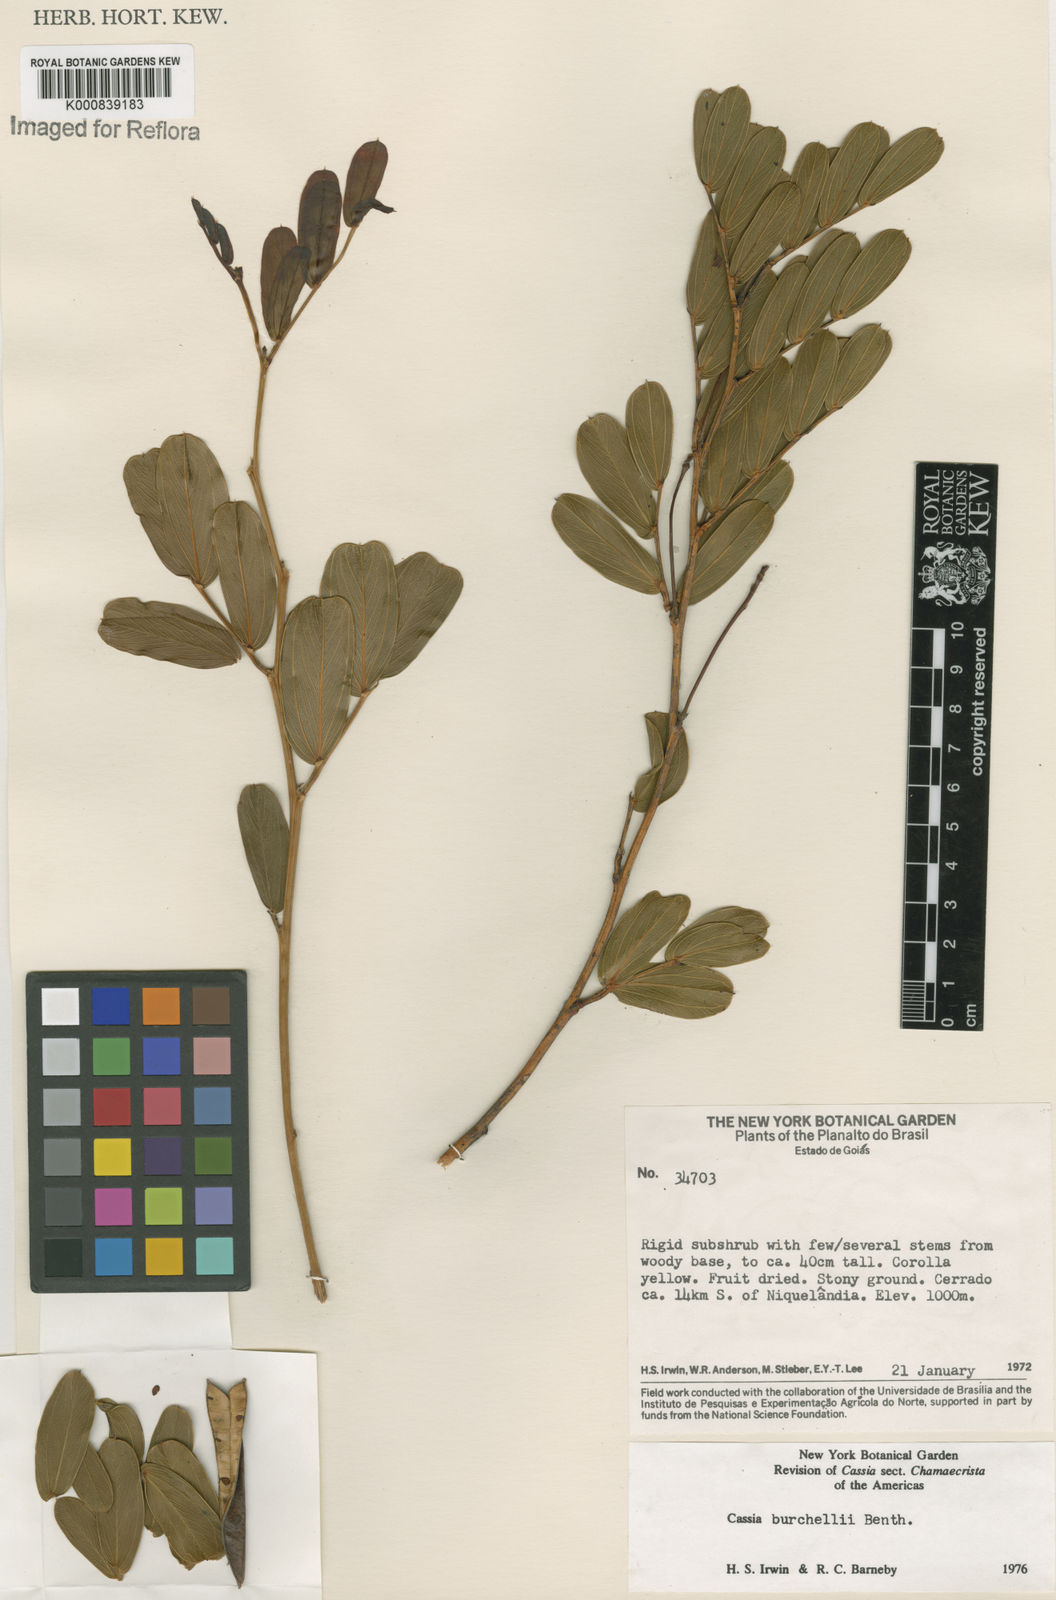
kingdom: Plantae
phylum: Tracheophyta
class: Magnoliopsida
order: Fabales
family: Fabaceae
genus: Chamaecrista
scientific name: Chamaecrista burchellii
